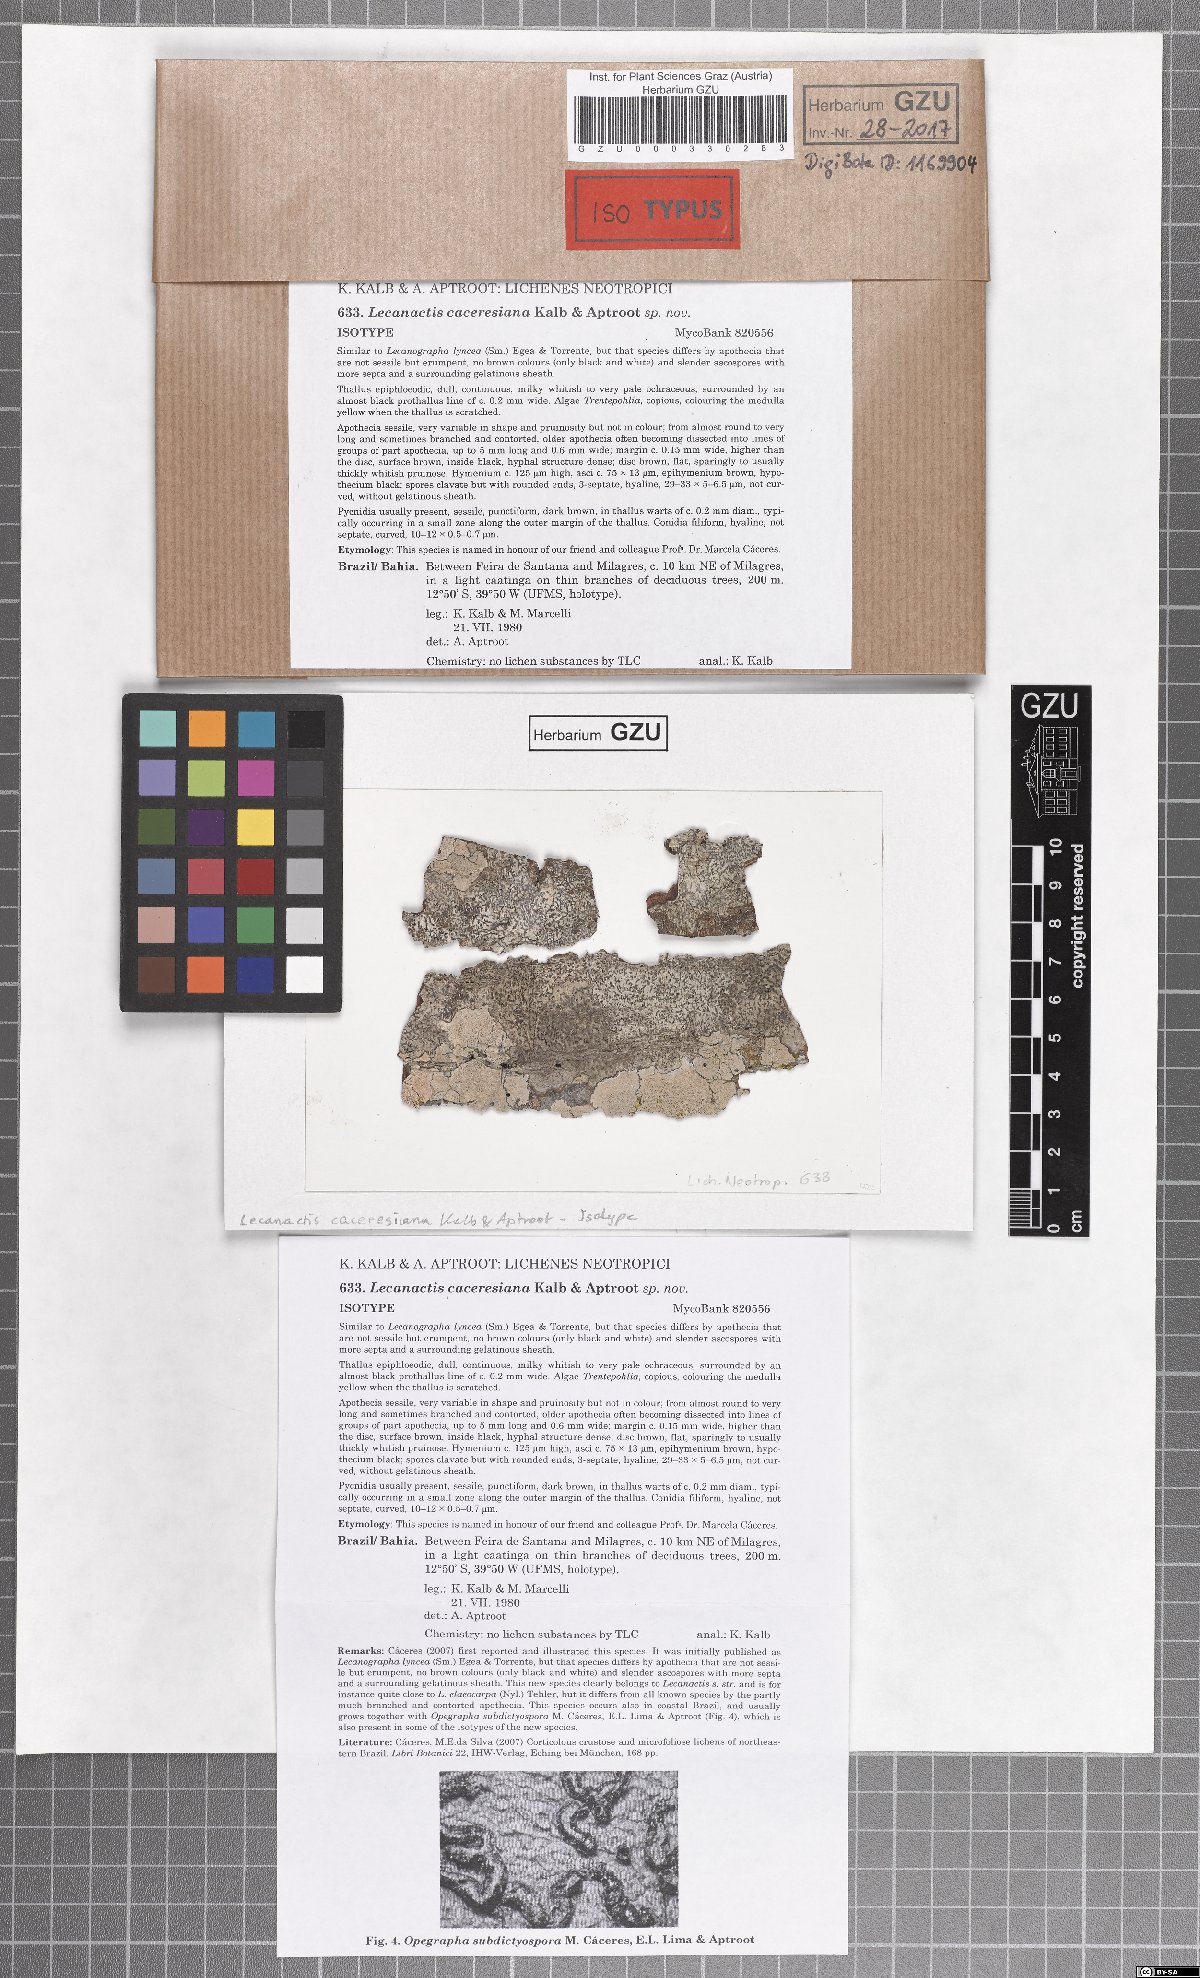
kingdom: Fungi
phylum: Ascomycota
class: Arthoniomycetes
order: Arthoniales
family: Roccellaceae
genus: Vigneronia
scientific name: Vigneronia caceresiana
